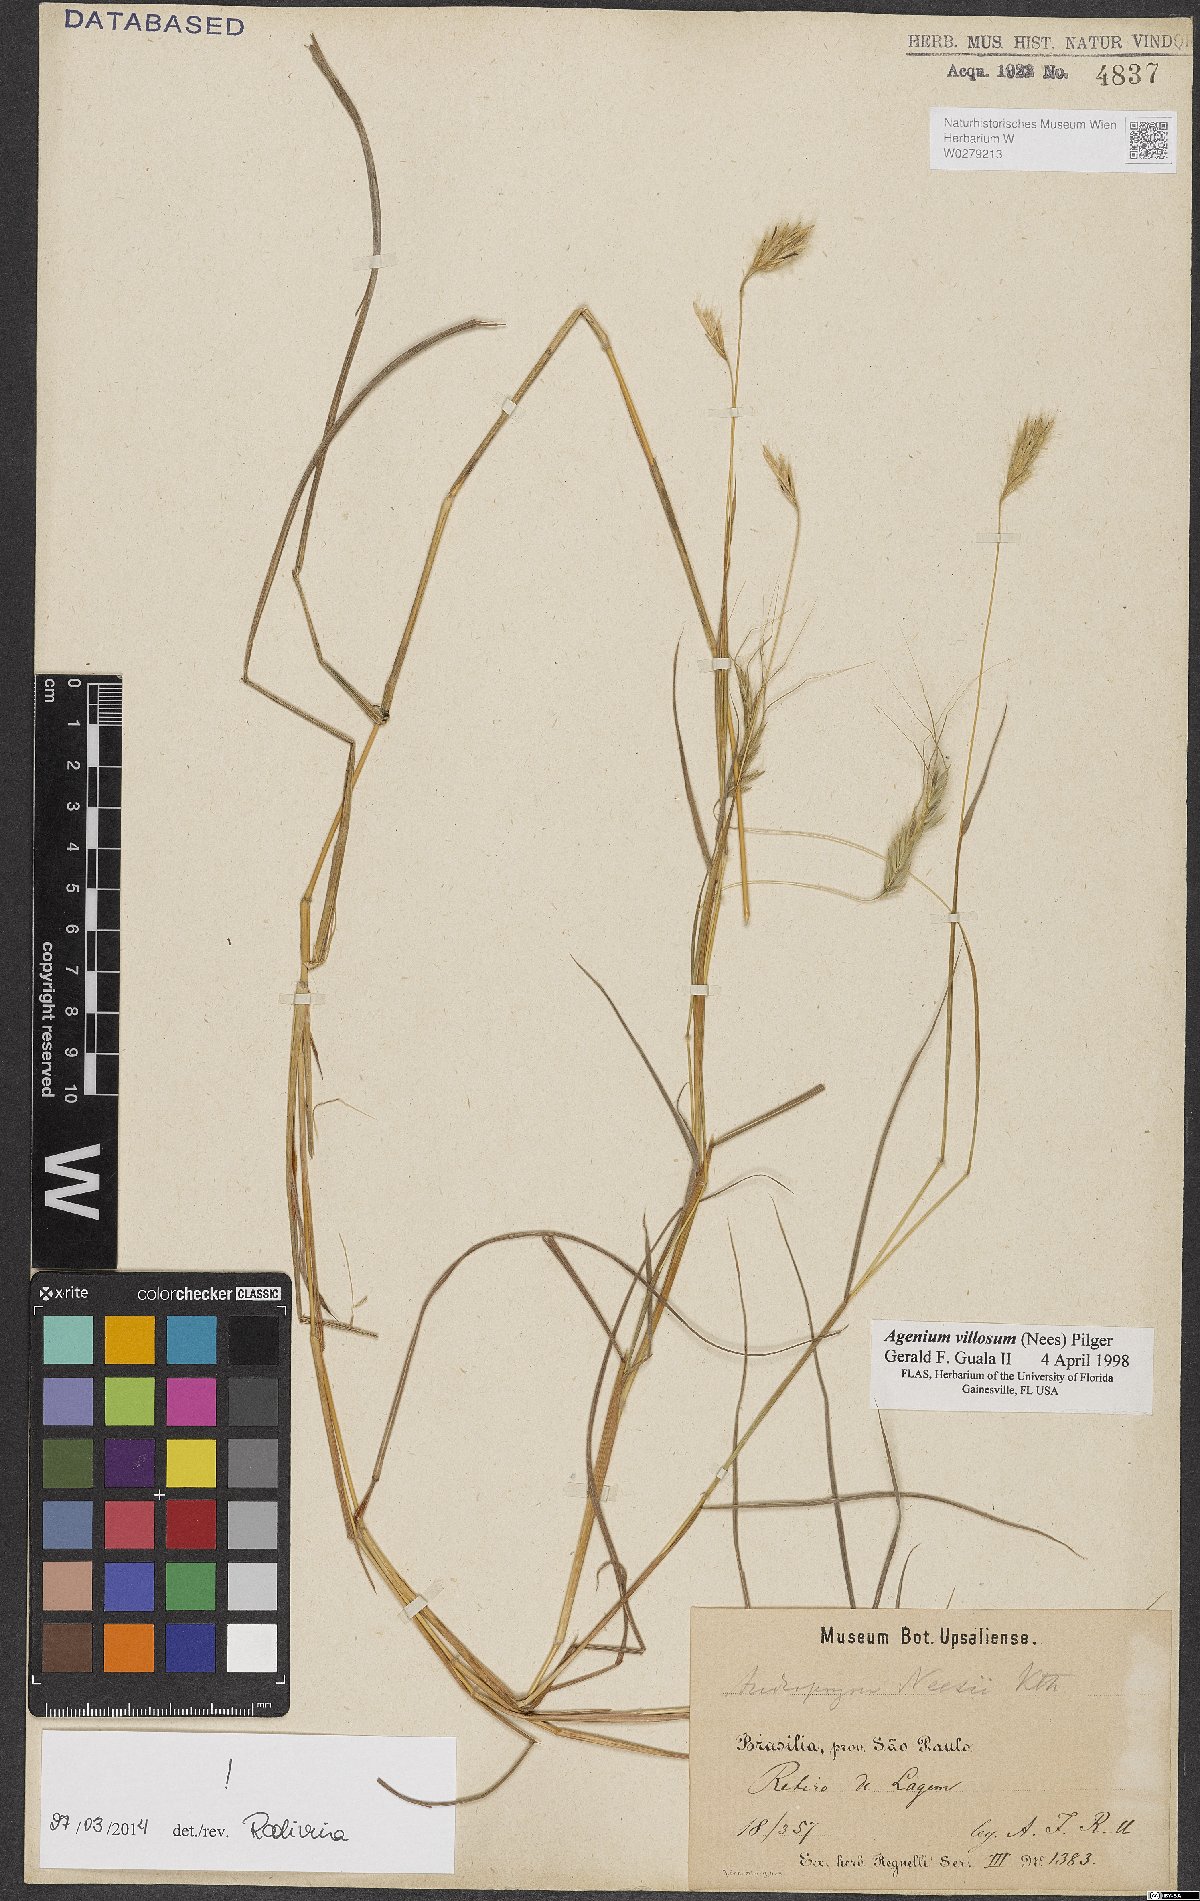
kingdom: Plantae
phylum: Tracheophyta
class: Liliopsida
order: Poales
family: Poaceae
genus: Agenium
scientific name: Agenium villosum
